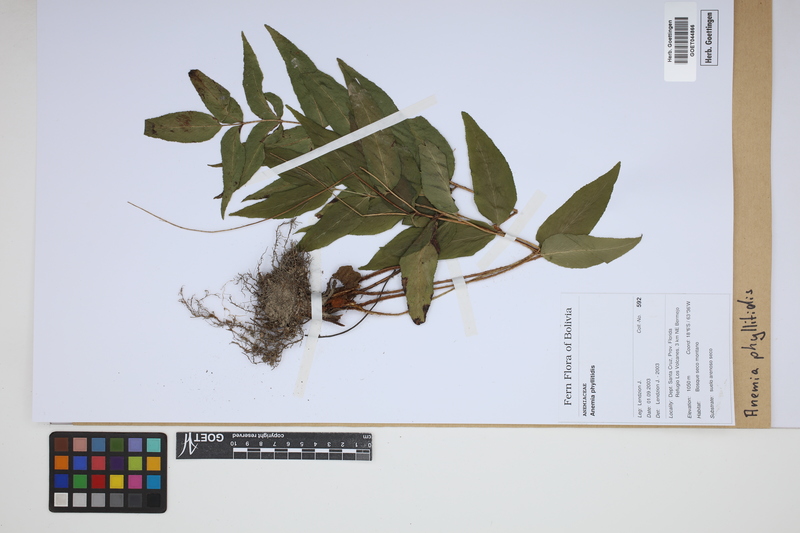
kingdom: Plantae
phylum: Tracheophyta
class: Polypodiopsida
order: Schizaeales
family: Anemiaceae
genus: Anemia
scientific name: Anemia phyllitidis
